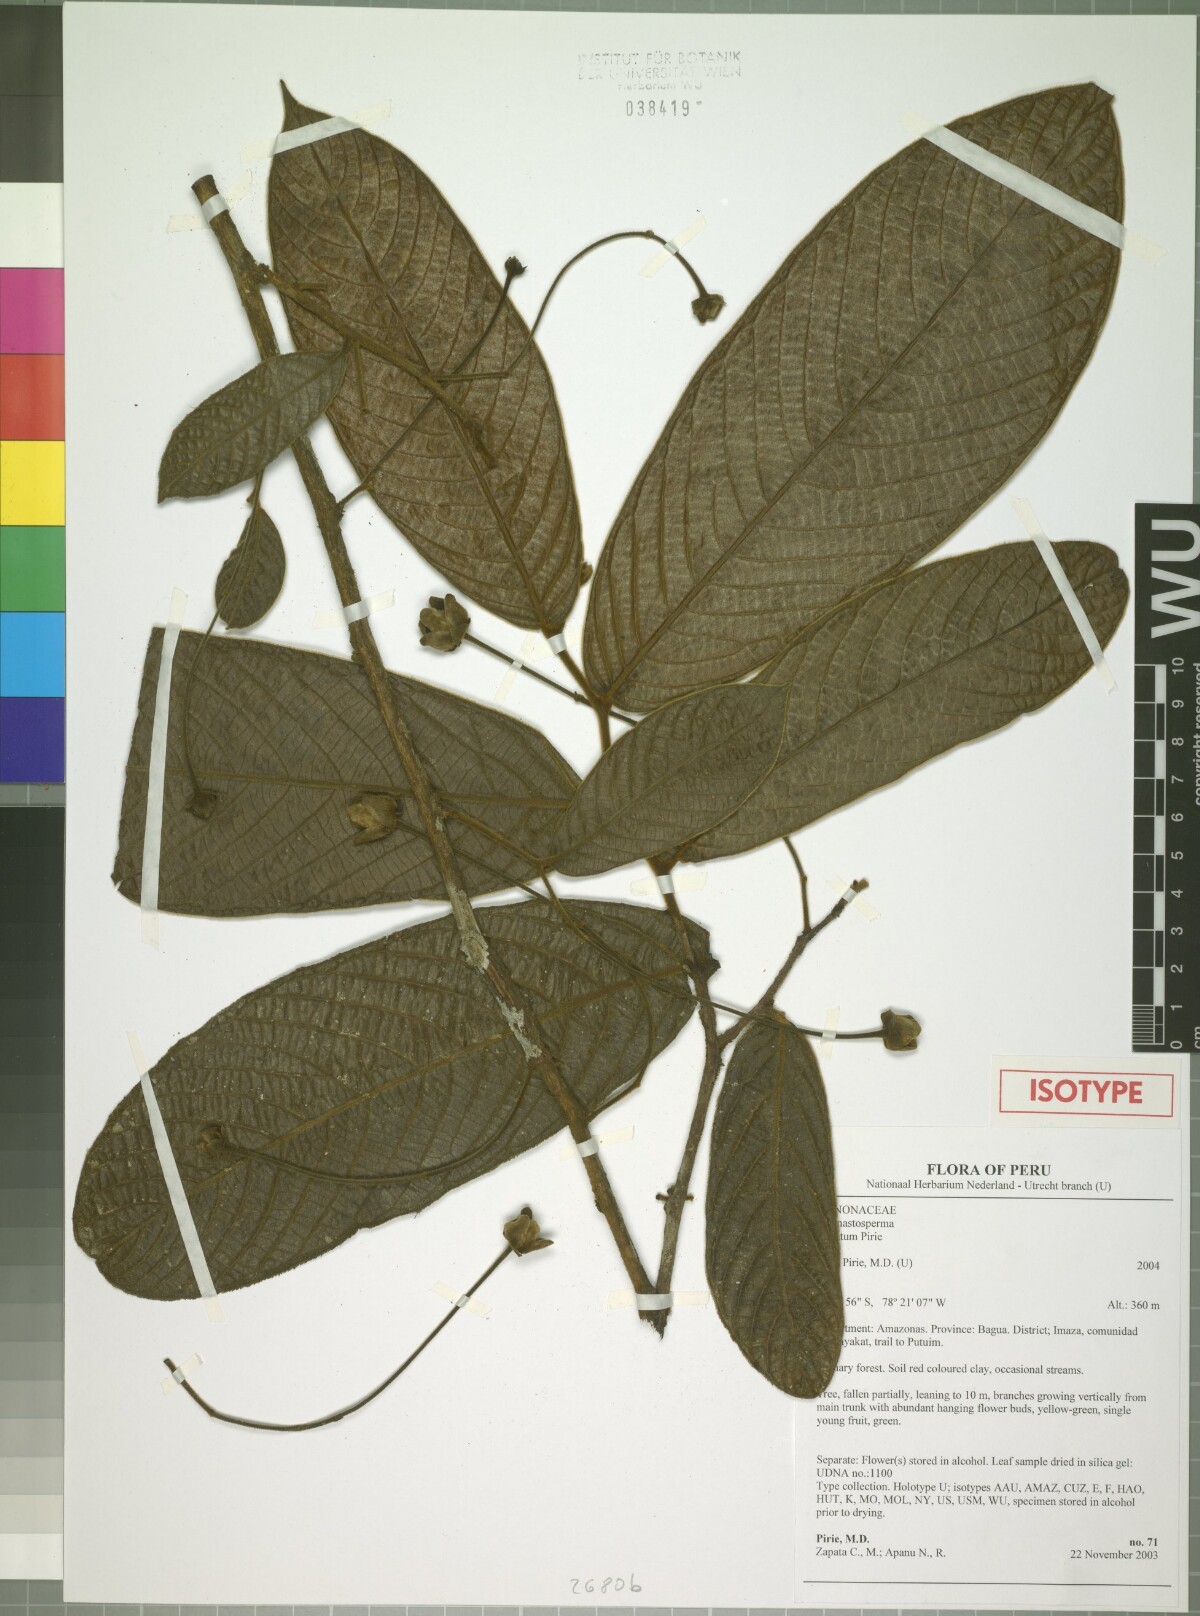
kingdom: Plantae
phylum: Tracheophyta
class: Magnoliopsida
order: Magnoliales
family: Annonaceae
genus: Cremastosperma
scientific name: Cremastosperma bullatum
